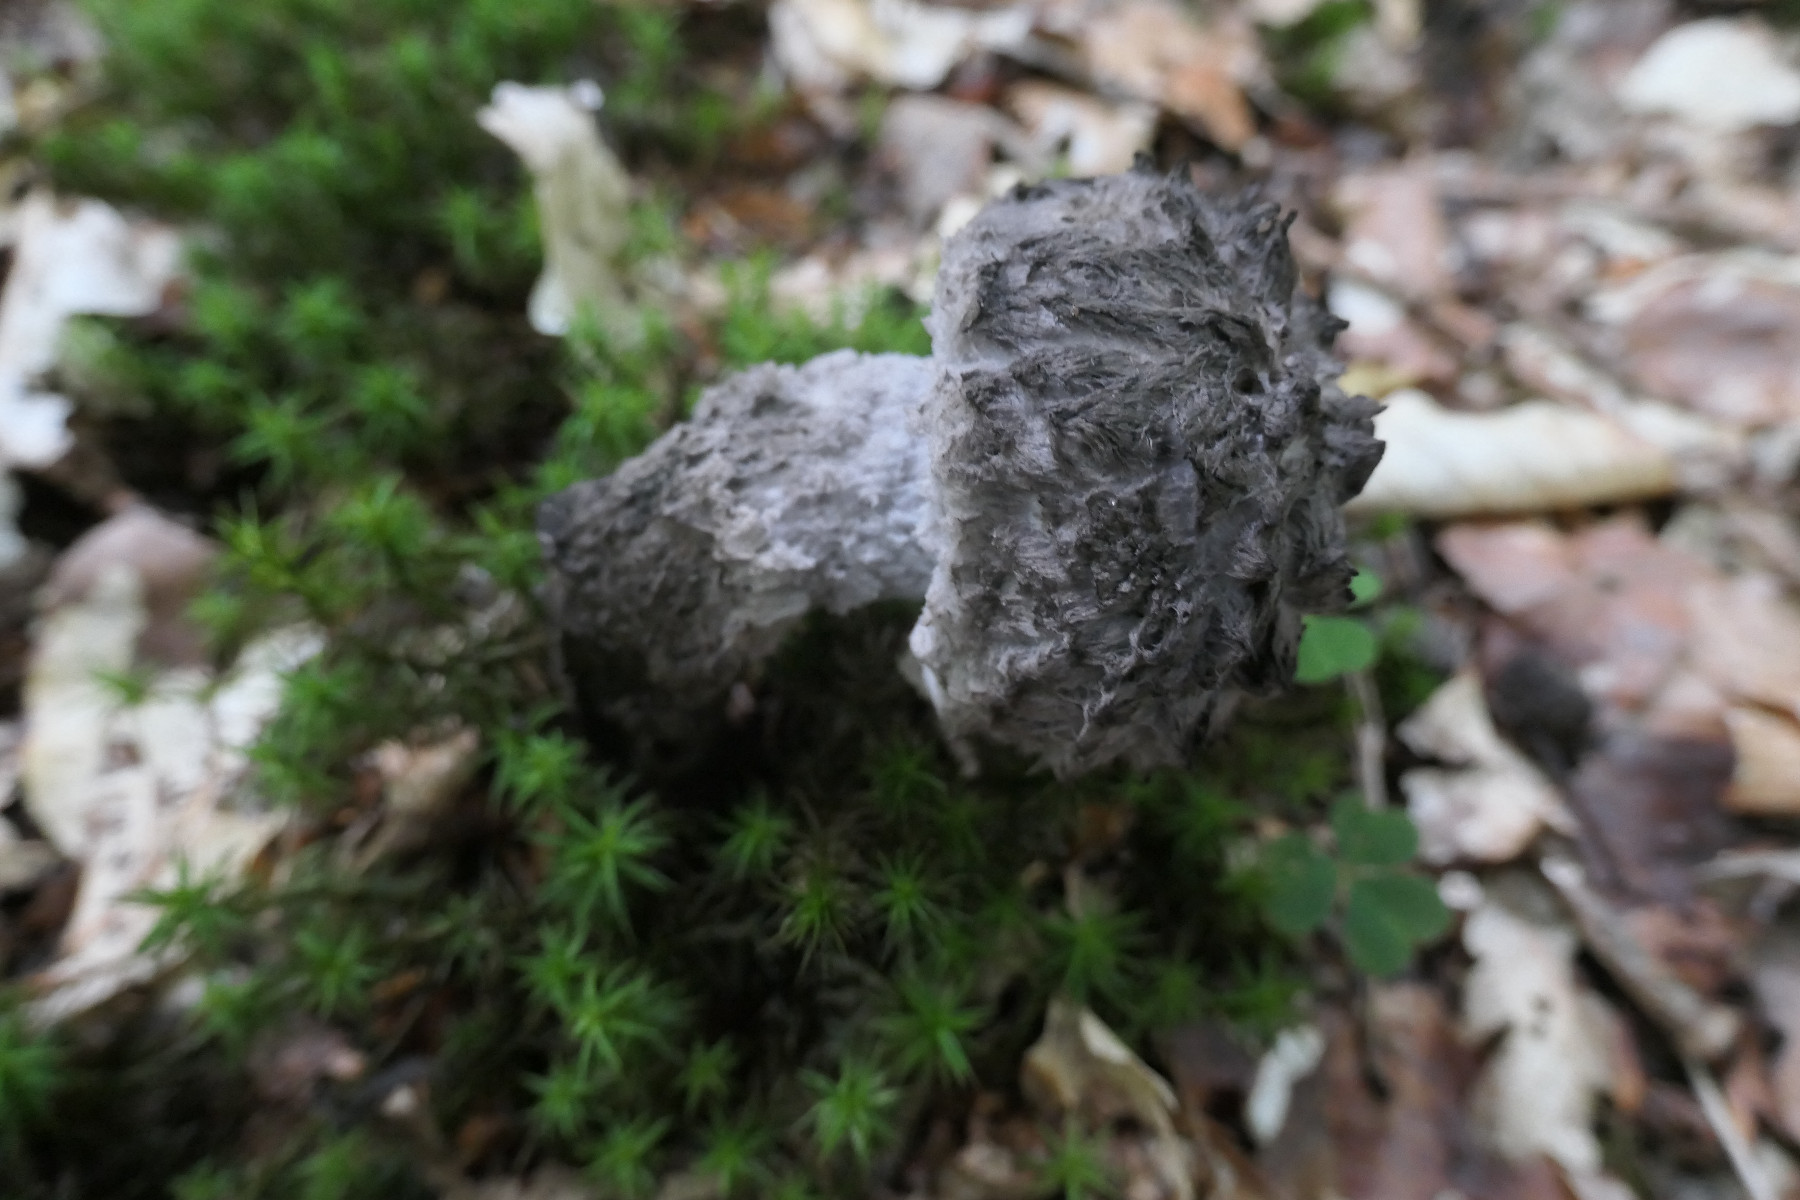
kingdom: Fungi
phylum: Basidiomycota
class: Agaricomycetes
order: Boletales
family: Boletaceae
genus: Strobilomyces
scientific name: Strobilomyces strobilaceus
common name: koglerørhat
